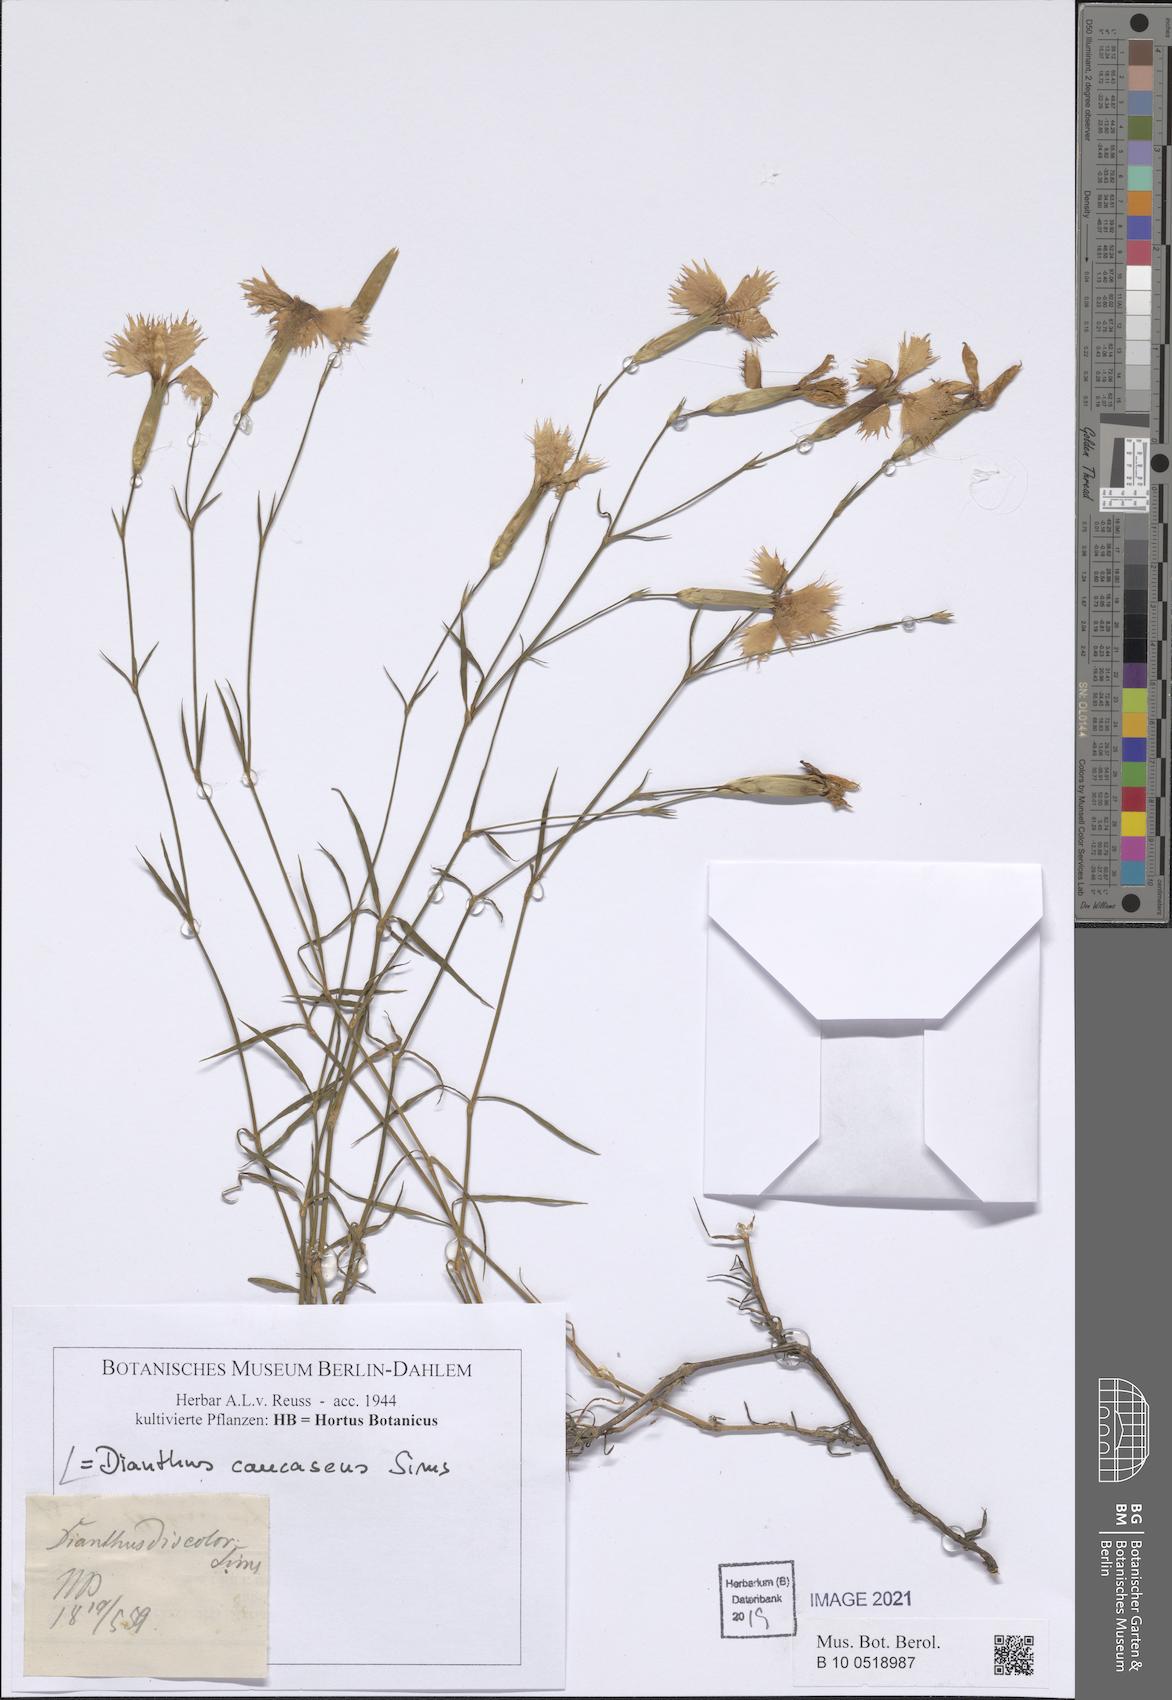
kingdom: Plantae
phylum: Tracheophyta
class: Magnoliopsida
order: Caryophyllales
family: Caryophyllaceae
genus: Dianthus
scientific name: Dianthus caucaseus
